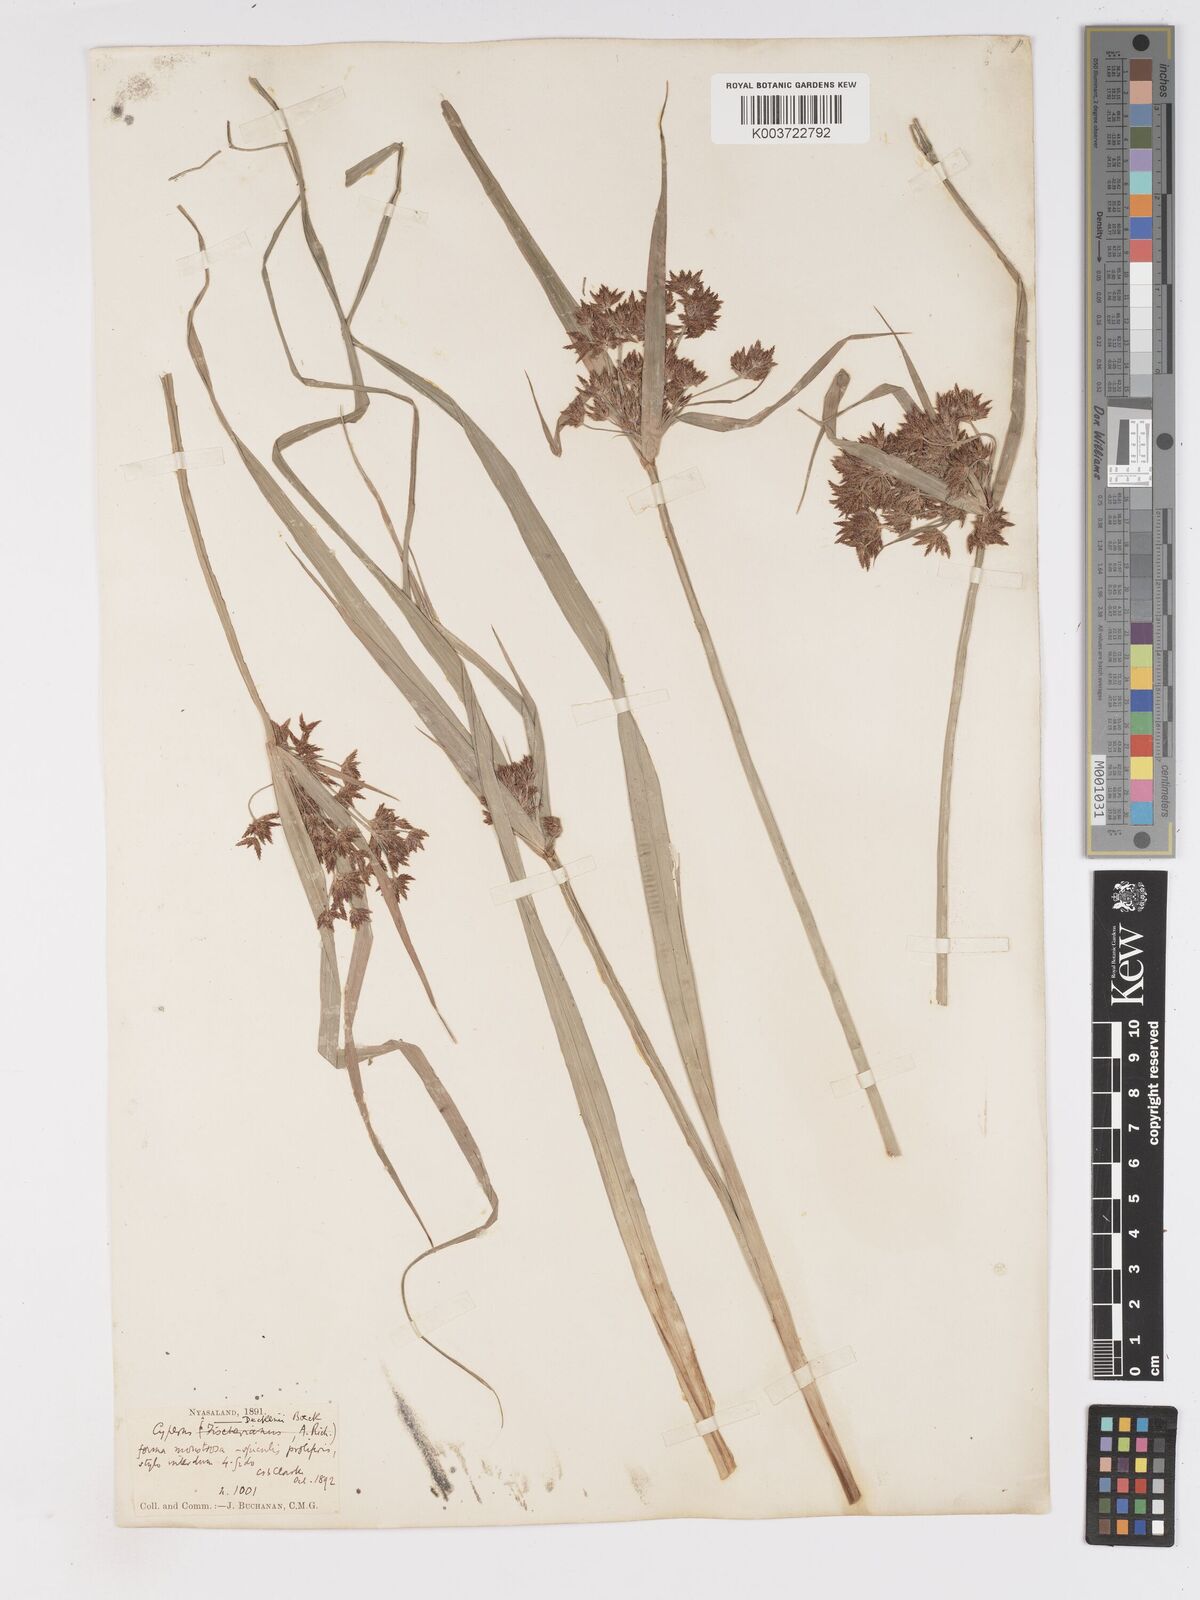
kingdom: Plantae
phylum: Tracheophyta
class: Liliopsida
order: Poales
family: Cyperaceae
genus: Cyperus
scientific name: Cyperus glaucophyllus
